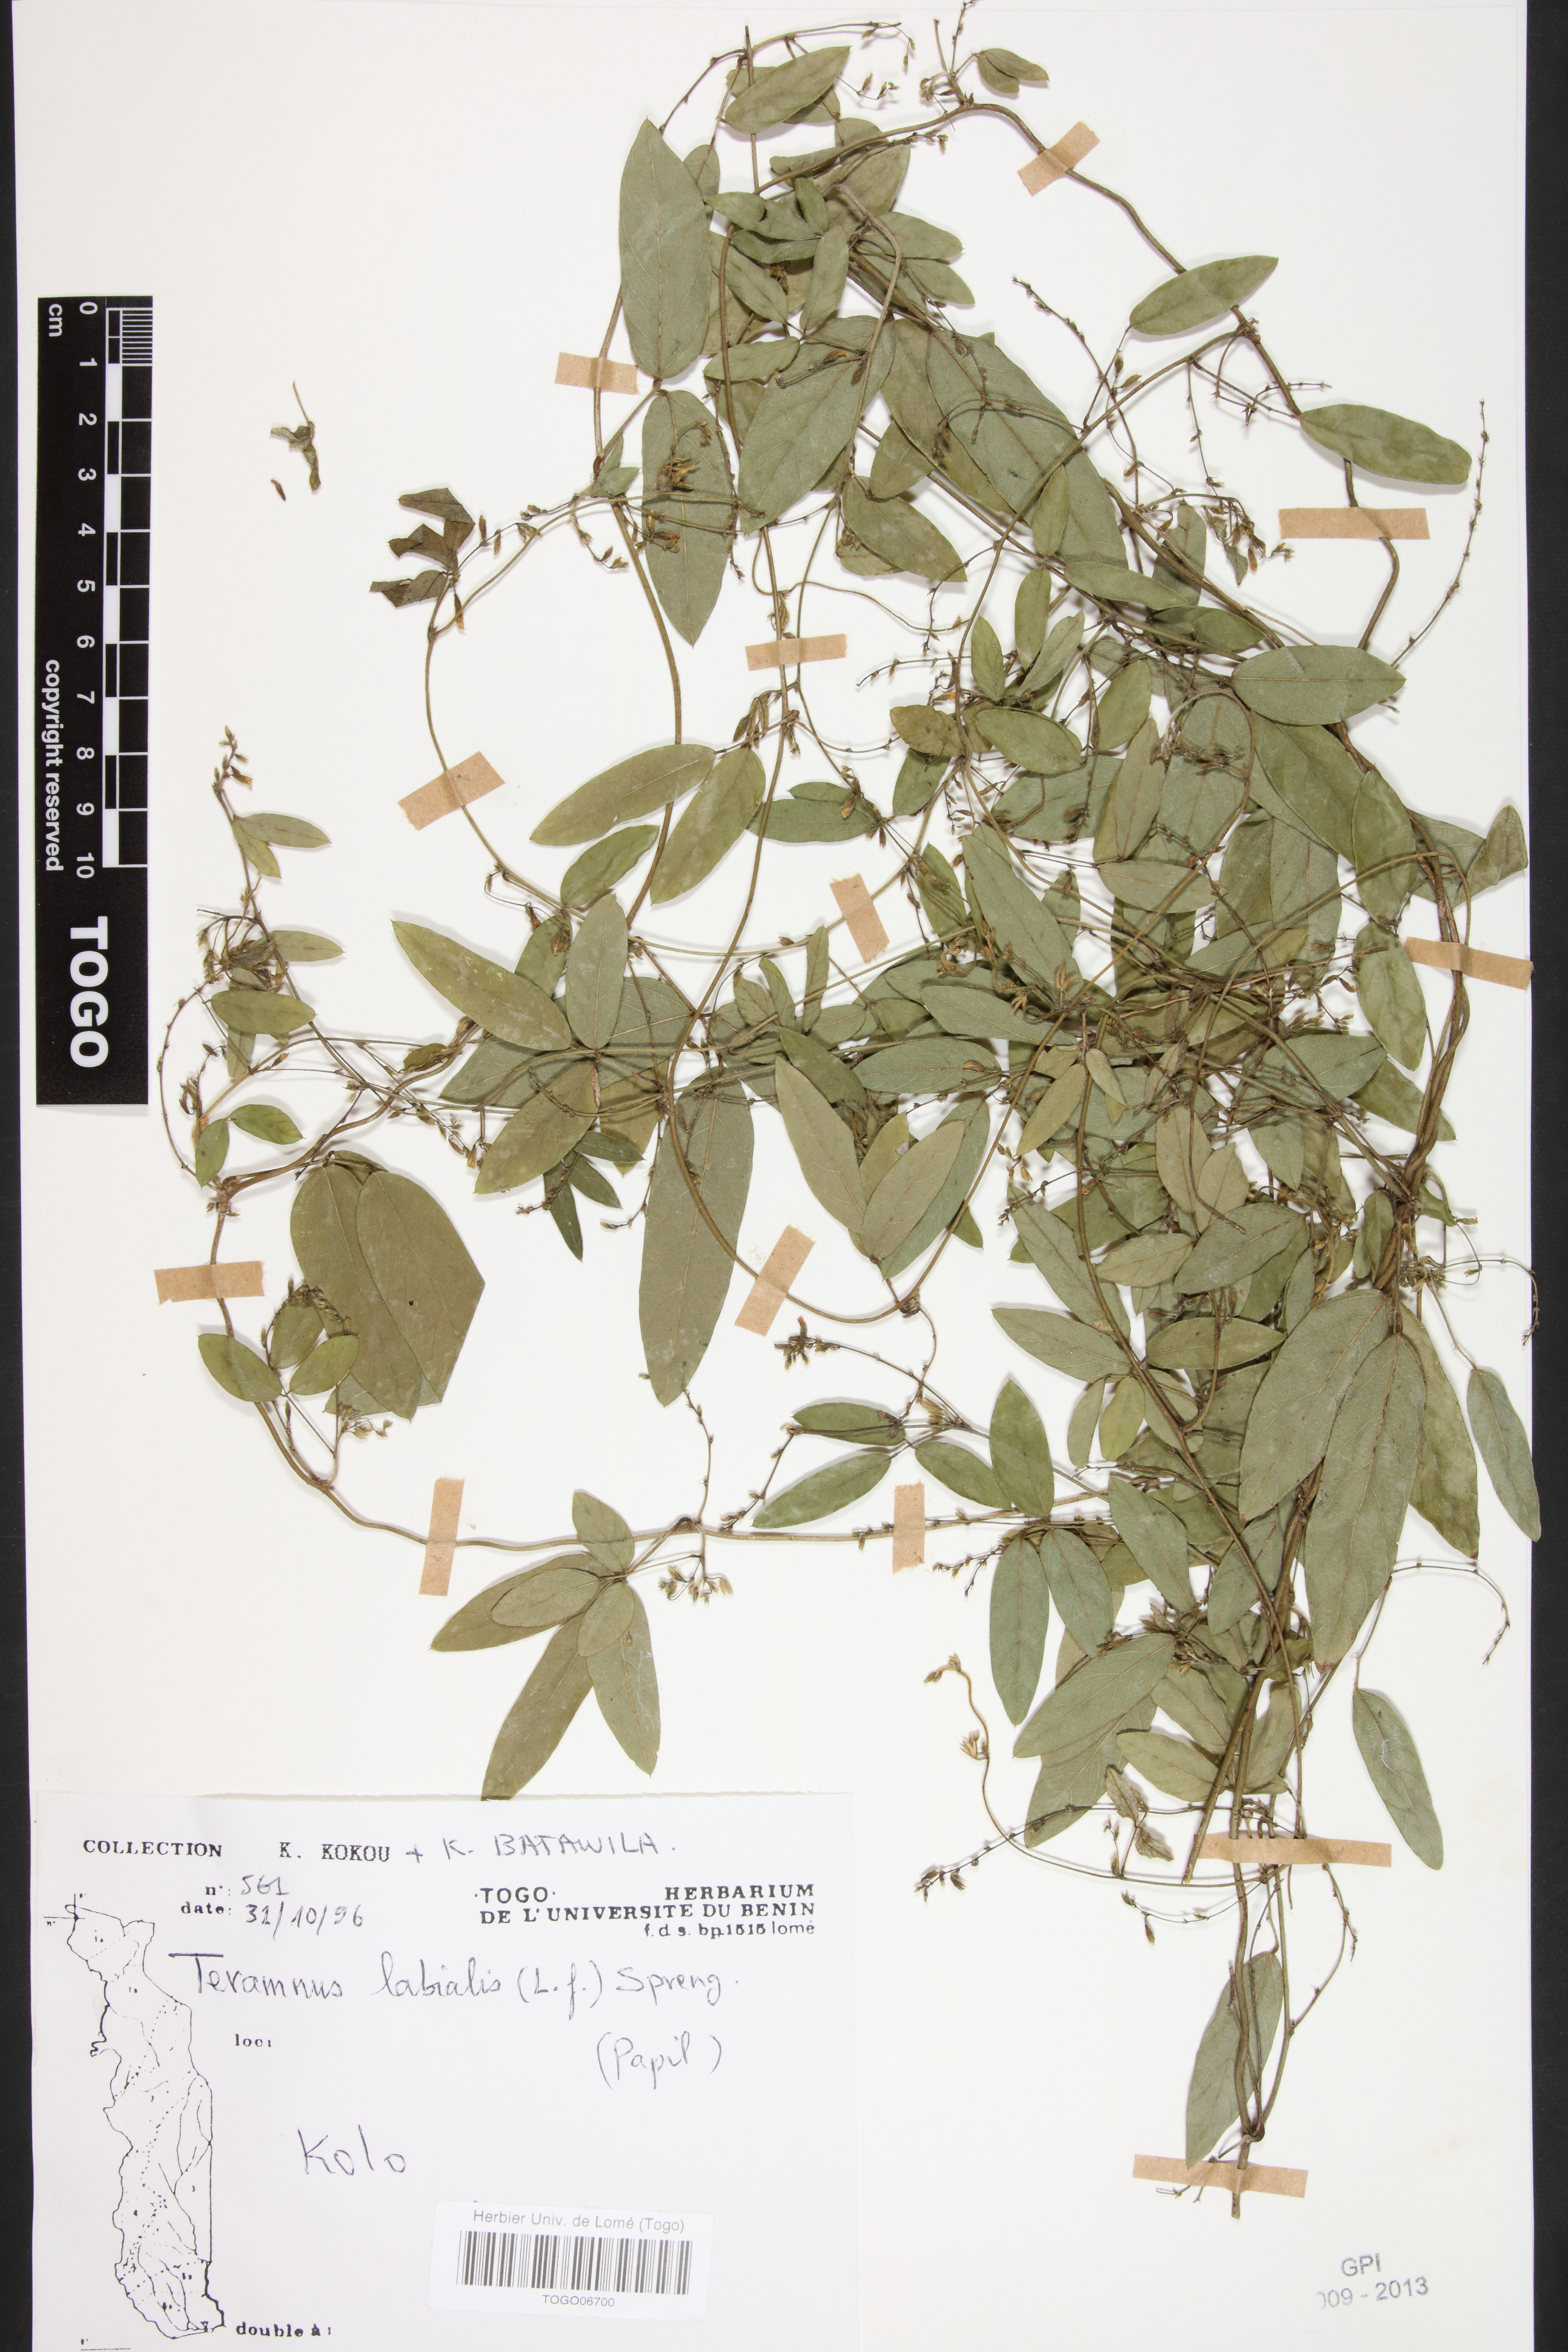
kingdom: Plantae
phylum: Tracheophyta
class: Magnoliopsida
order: Fabales
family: Fabaceae
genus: Teramnus
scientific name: Teramnus labialis
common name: Blue wiss
